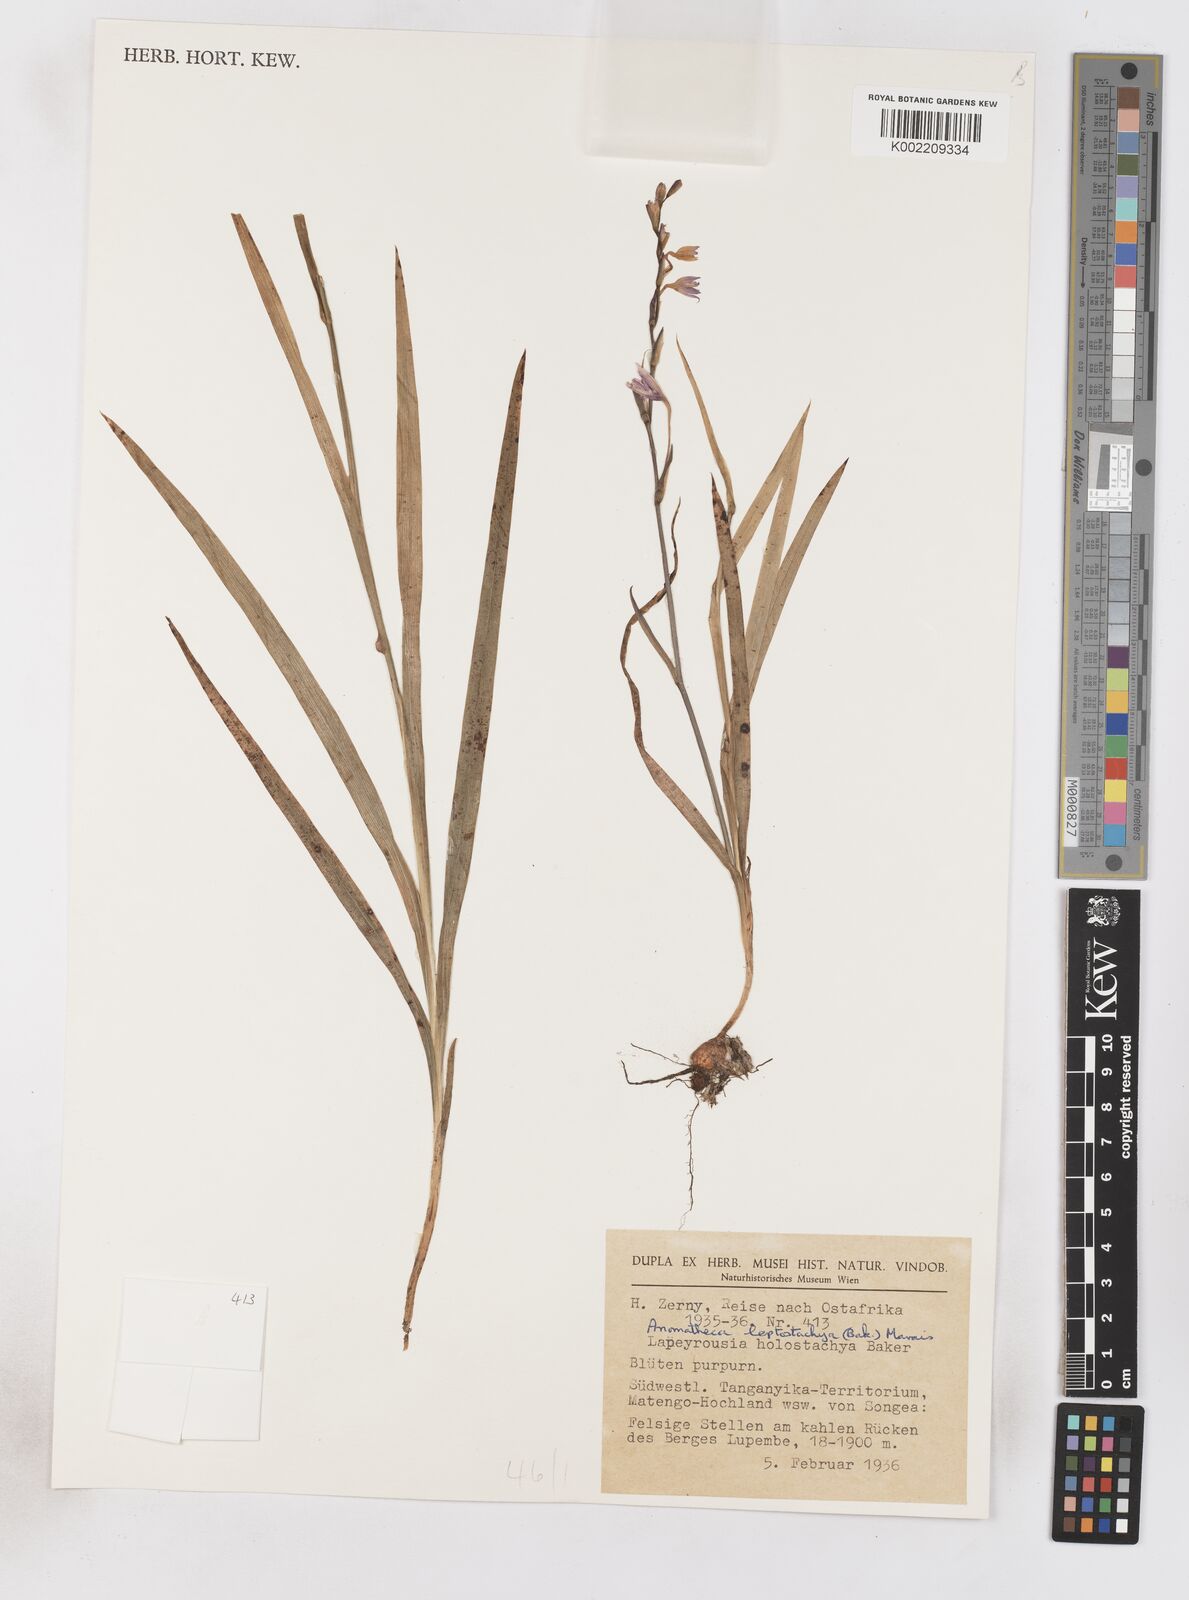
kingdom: Plantae
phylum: Tracheophyta
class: Liliopsida
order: Asparagales
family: Iridaceae
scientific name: Iridaceae
